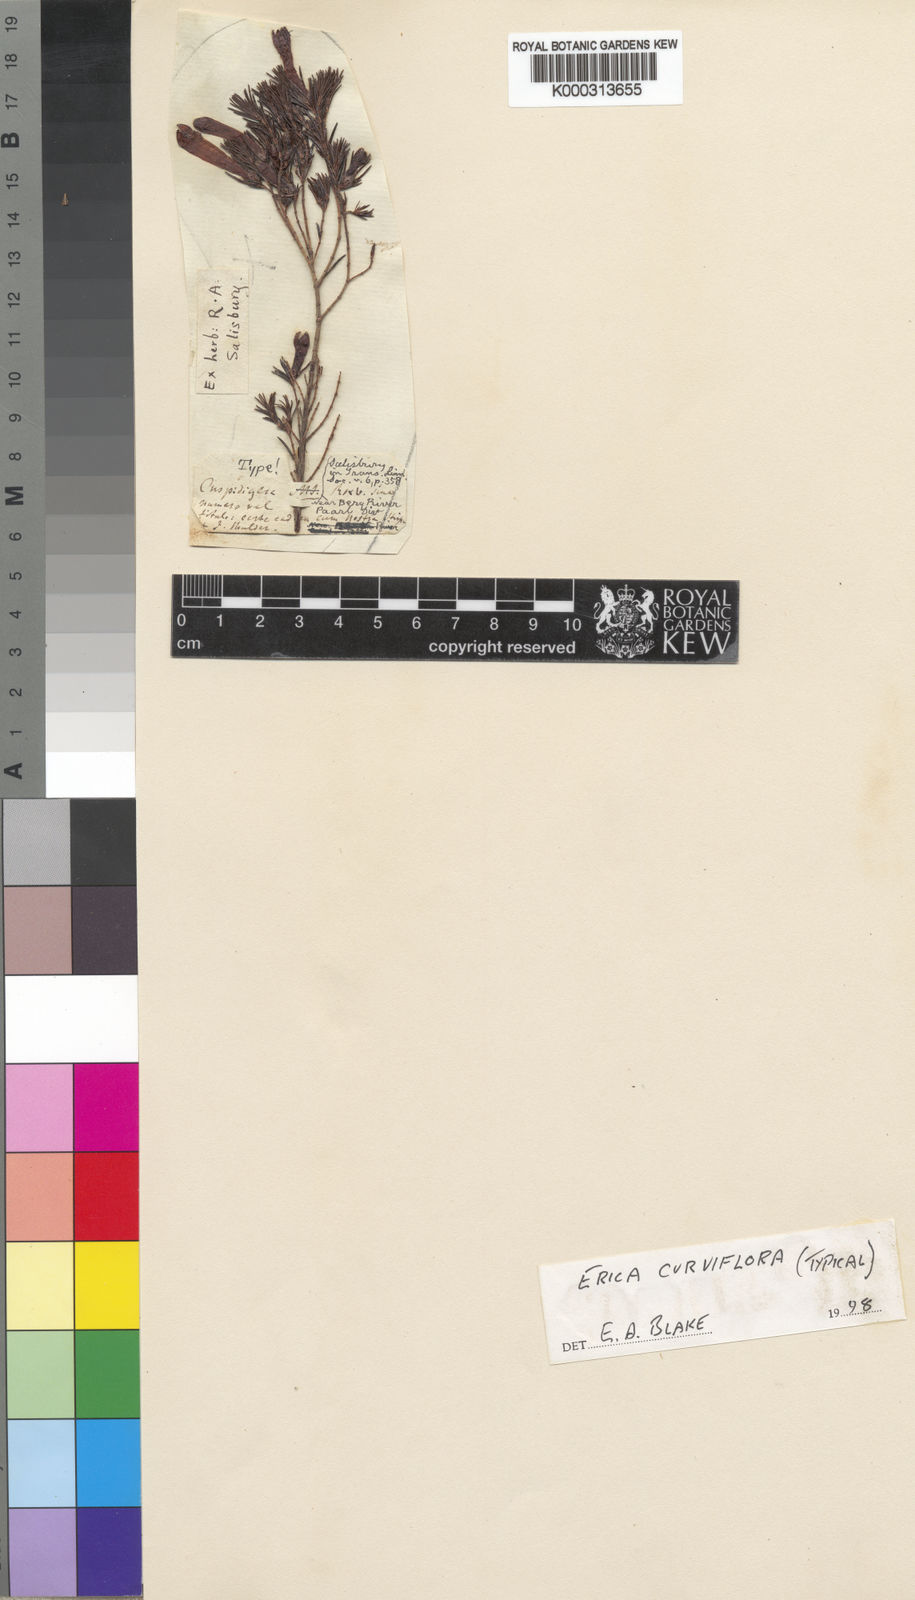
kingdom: Plantae
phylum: Tracheophyta
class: Magnoliopsida
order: Ericales
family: Ericaceae
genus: Erica
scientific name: Erica curviflora
